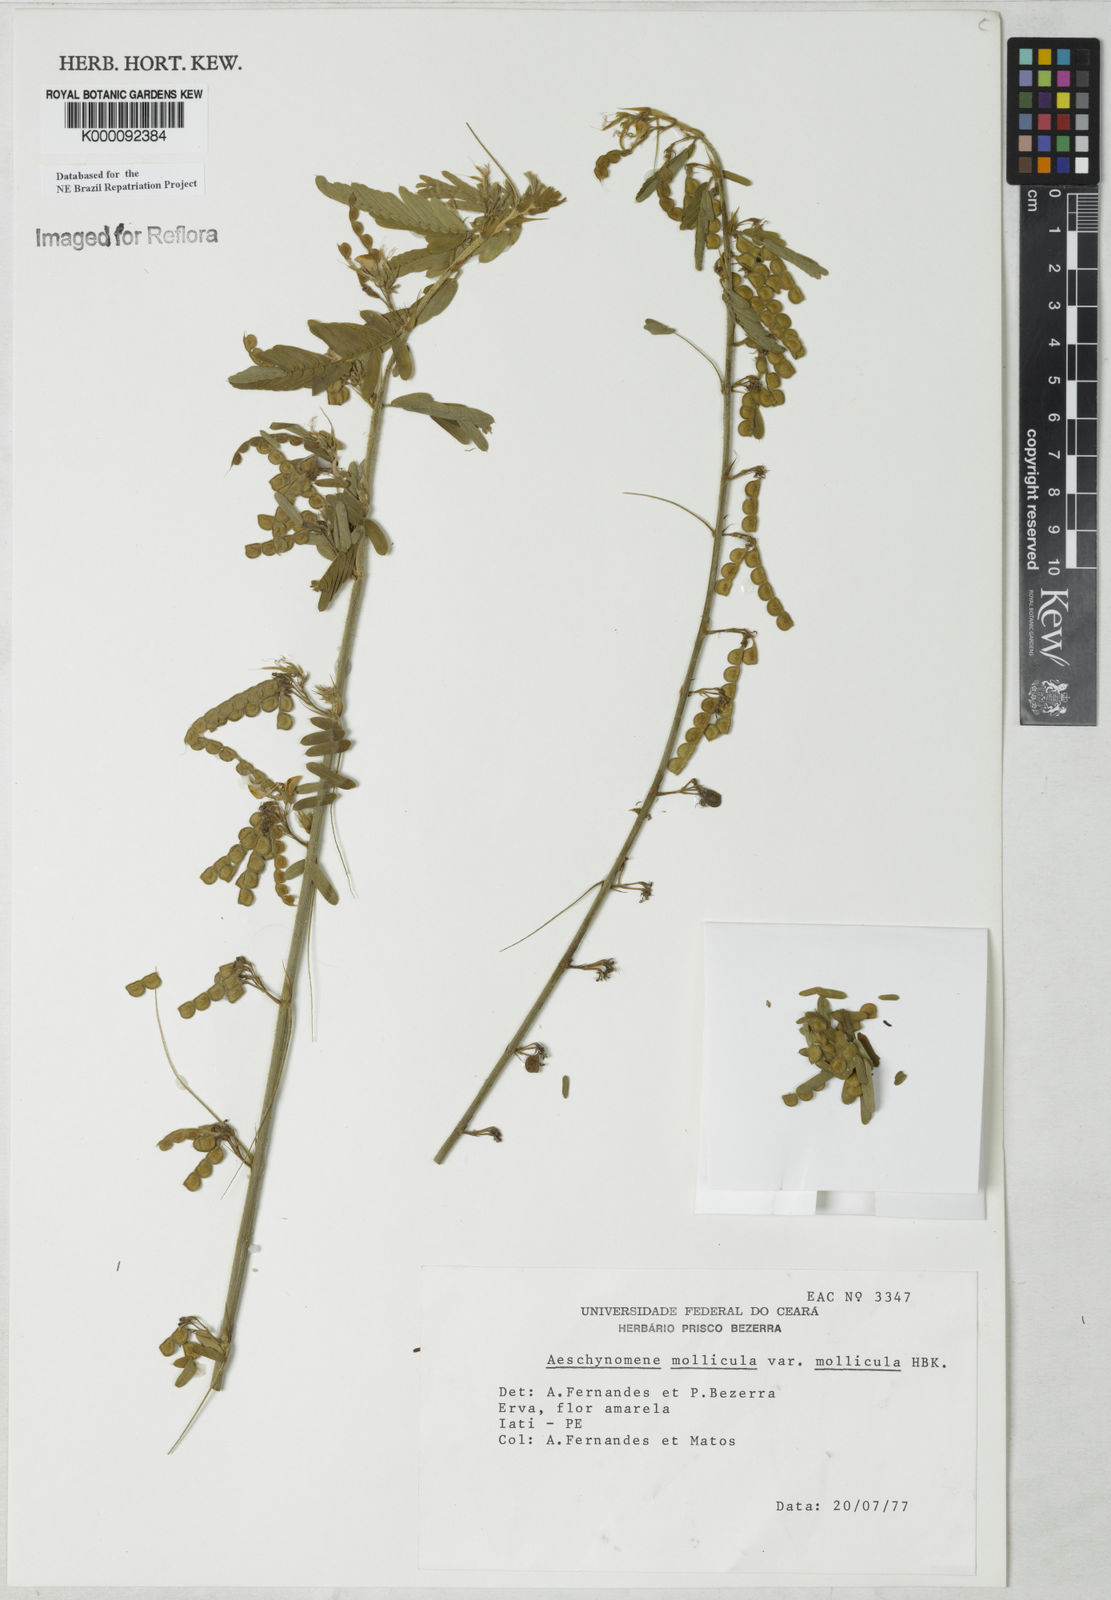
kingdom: Plantae
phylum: Tracheophyta
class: Magnoliopsida
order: Fabales
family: Fabaceae
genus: Ctenodon
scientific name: Ctenodon molliculus
